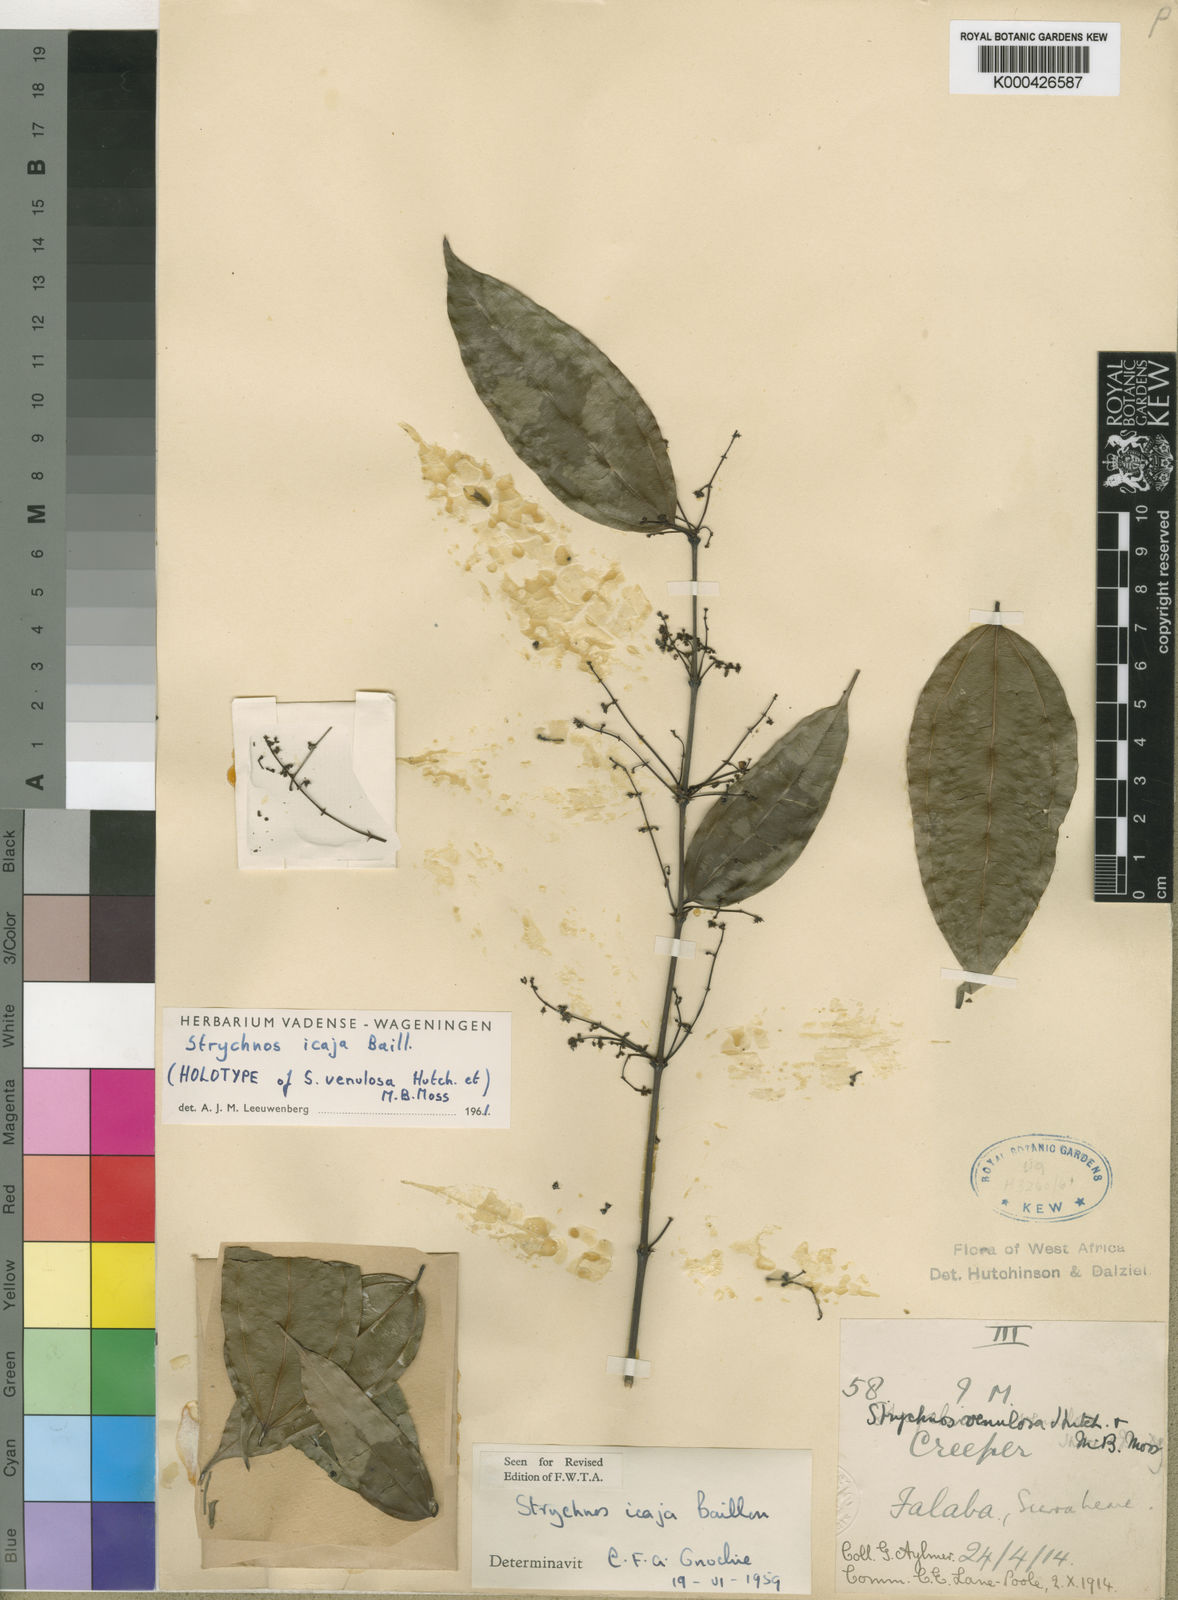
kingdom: Plantae
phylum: Tracheophyta
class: Magnoliopsida
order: Gentianales
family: Loganiaceae
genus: Strychnos
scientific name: Strychnos icaja
